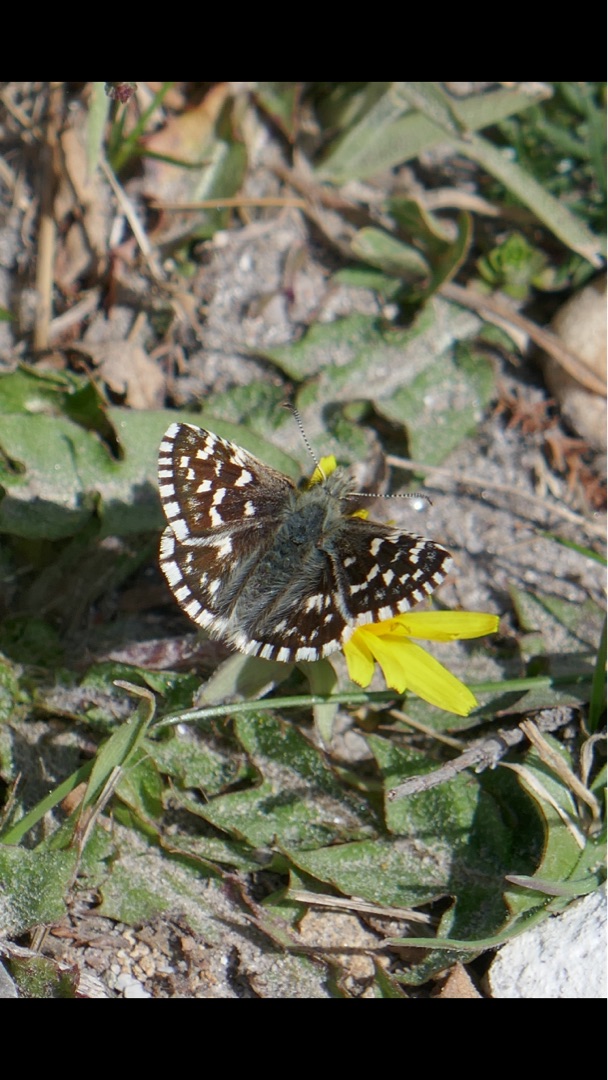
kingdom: Animalia
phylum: Arthropoda
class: Insecta
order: Lepidoptera
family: Hesperiidae
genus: Pyrgus
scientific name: Pyrgus malvae
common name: Spættet bredpande
